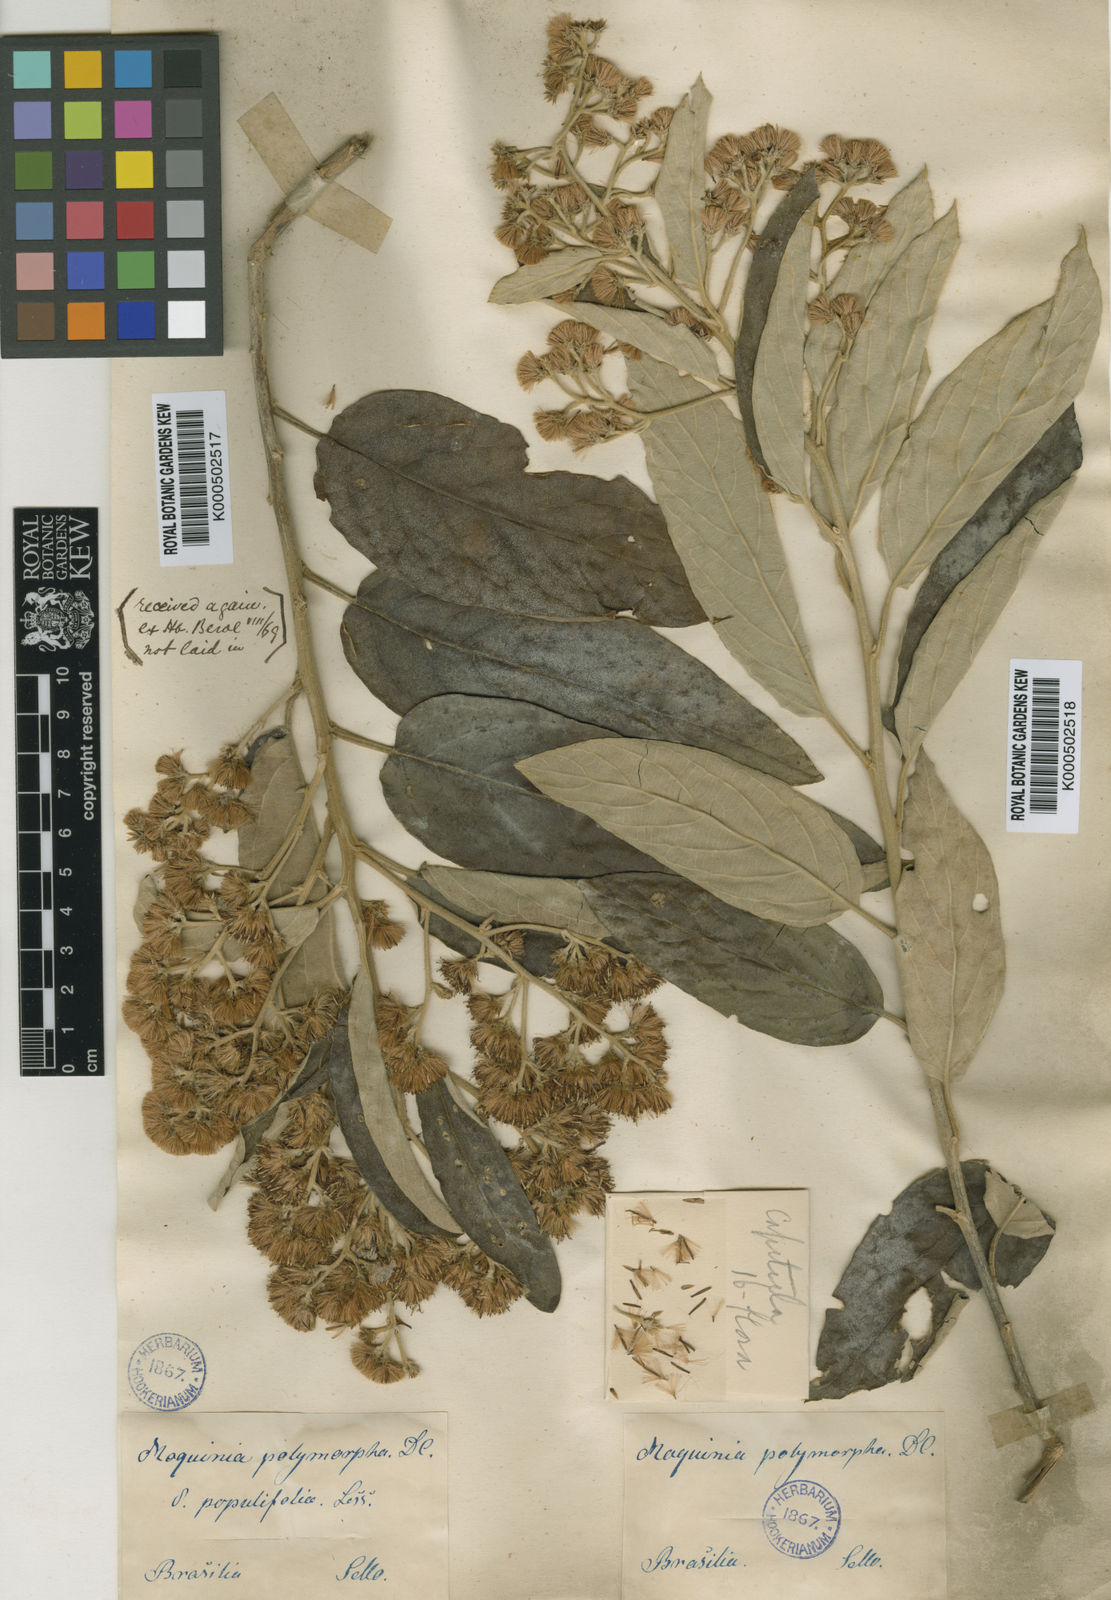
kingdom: Plantae
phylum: Tracheophyta
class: Magnoliopsida
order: Asterales
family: Asteraceae
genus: Moquiniastrum
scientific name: Moquiniastrum polymorphum
